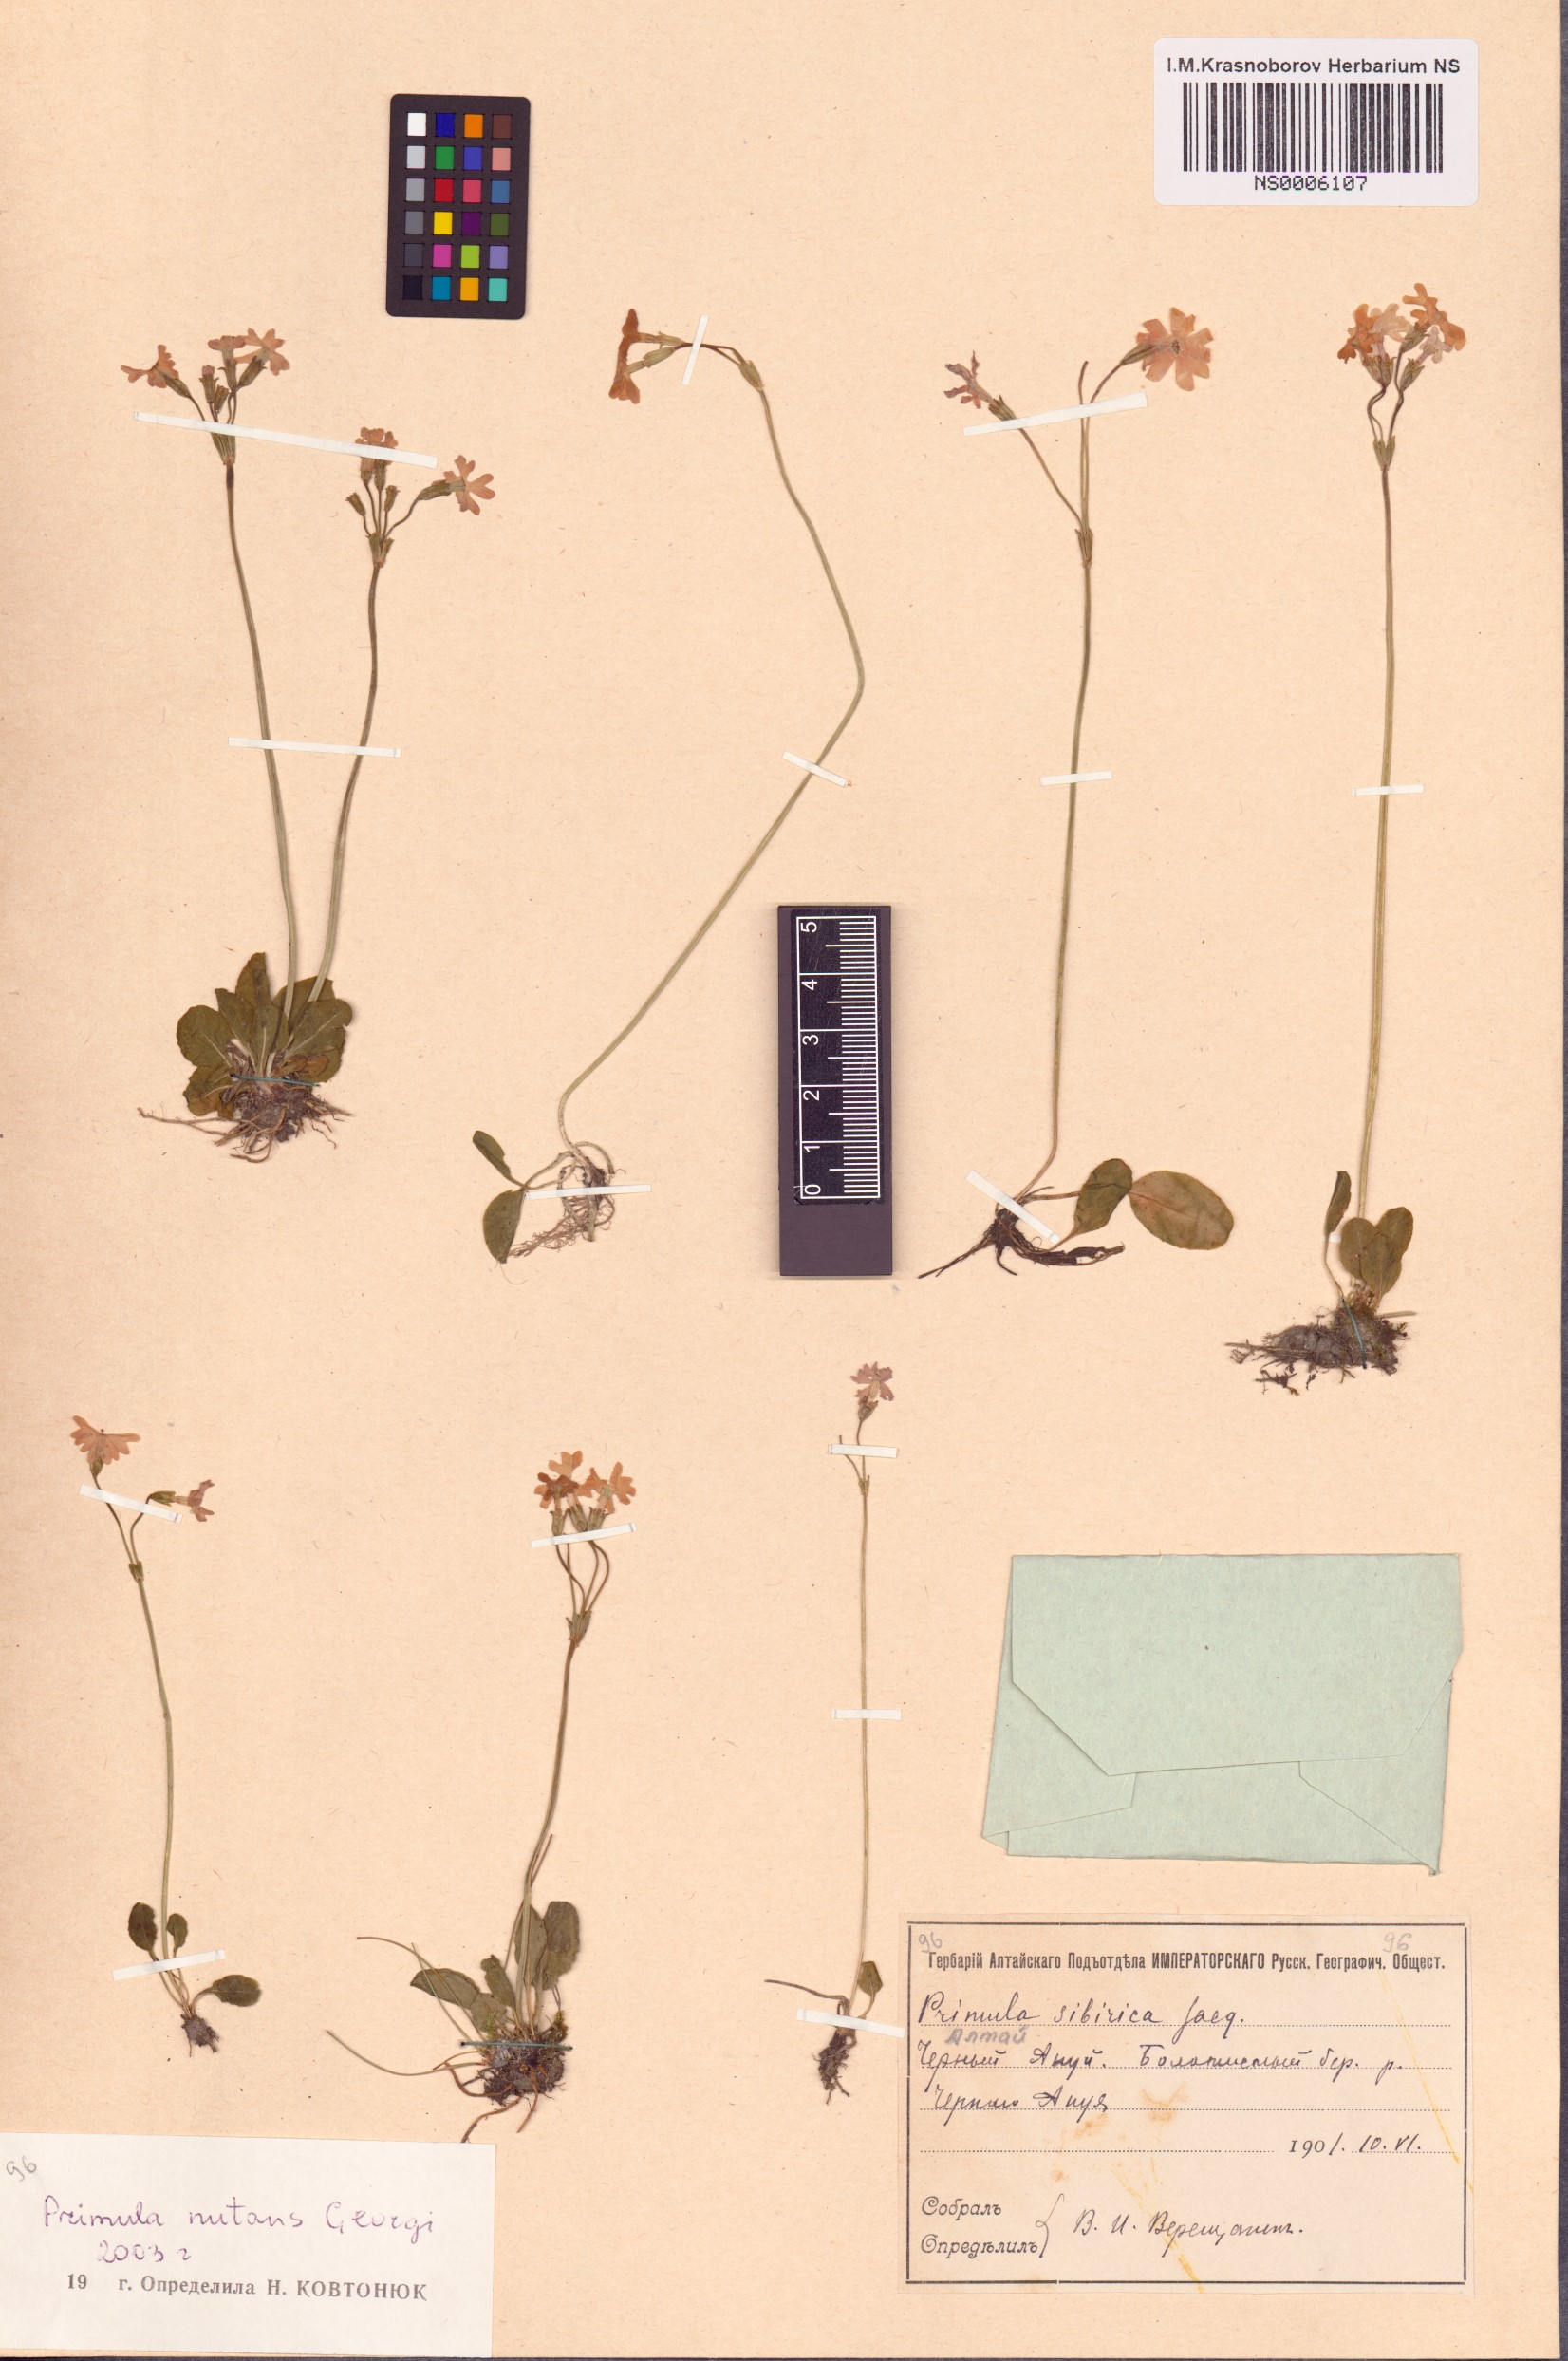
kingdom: Plantae
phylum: Tracheophyta
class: Magnoliopsida
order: Ericales
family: Primulaceae
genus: Primula
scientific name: Primula nutans
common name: Siberian primrose
